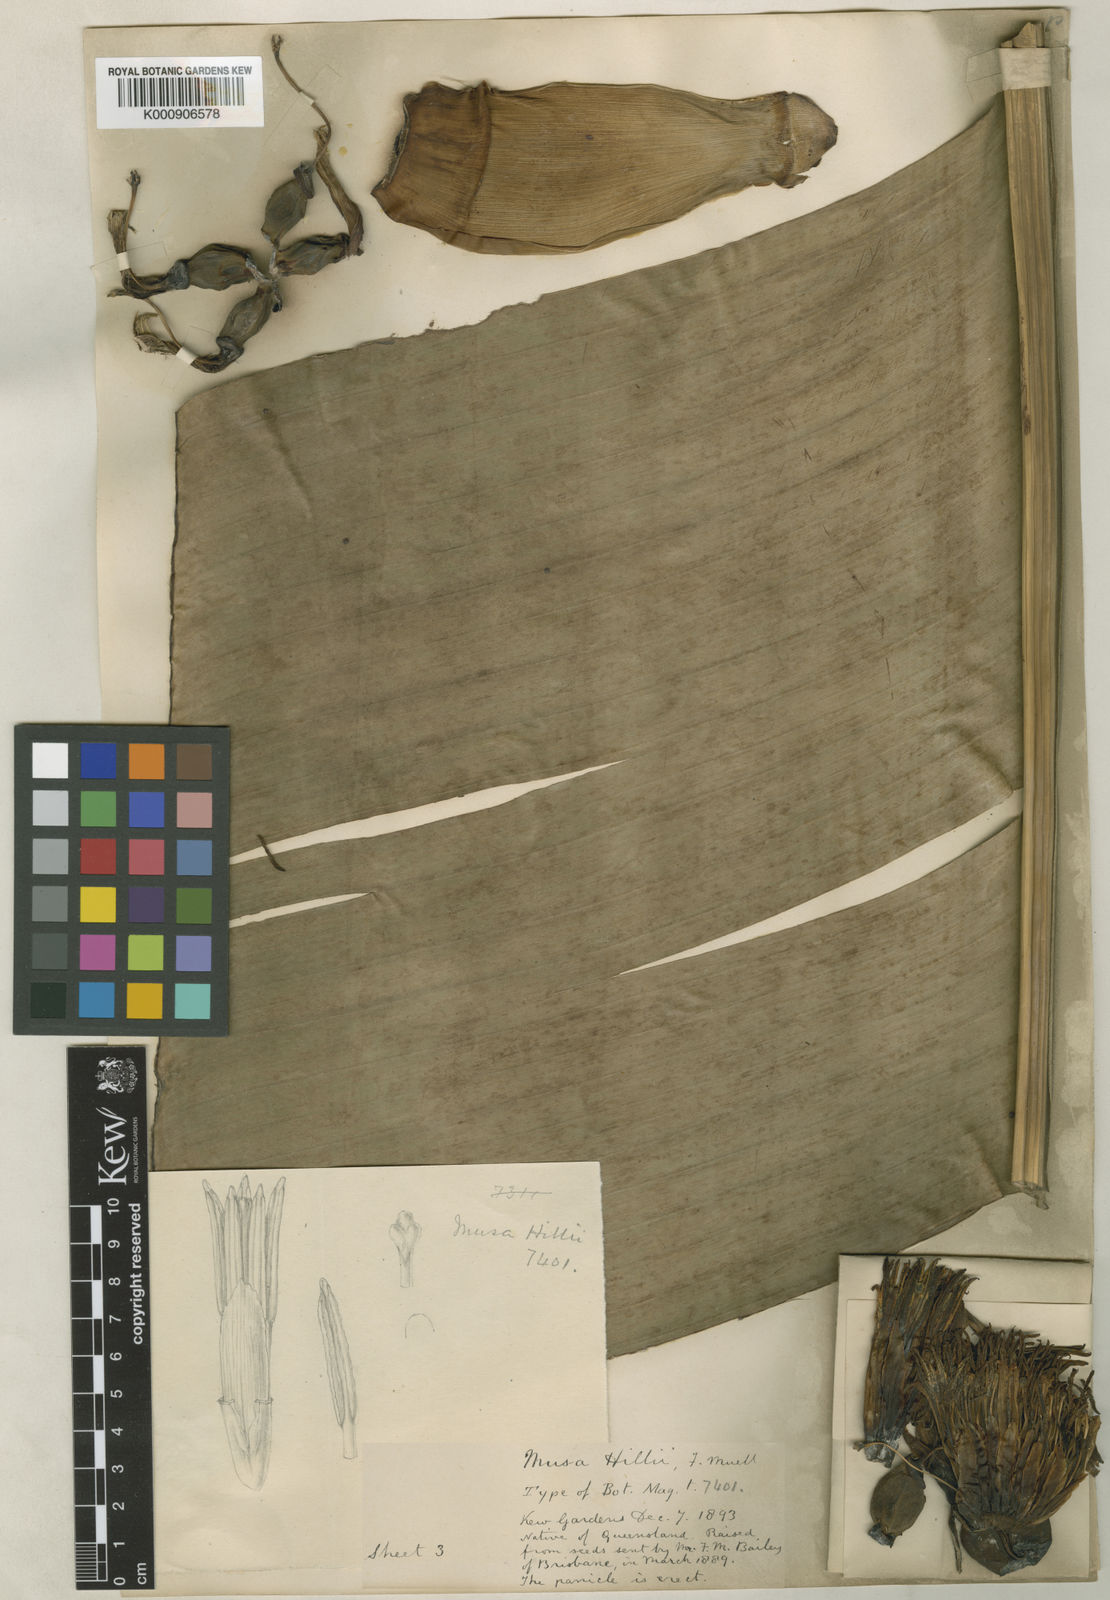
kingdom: Plantae
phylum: Tracheophyta
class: Liliopsida
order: Zingiberales
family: Musaceae
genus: Musa
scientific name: Musa jackeyi
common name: Wild banana
